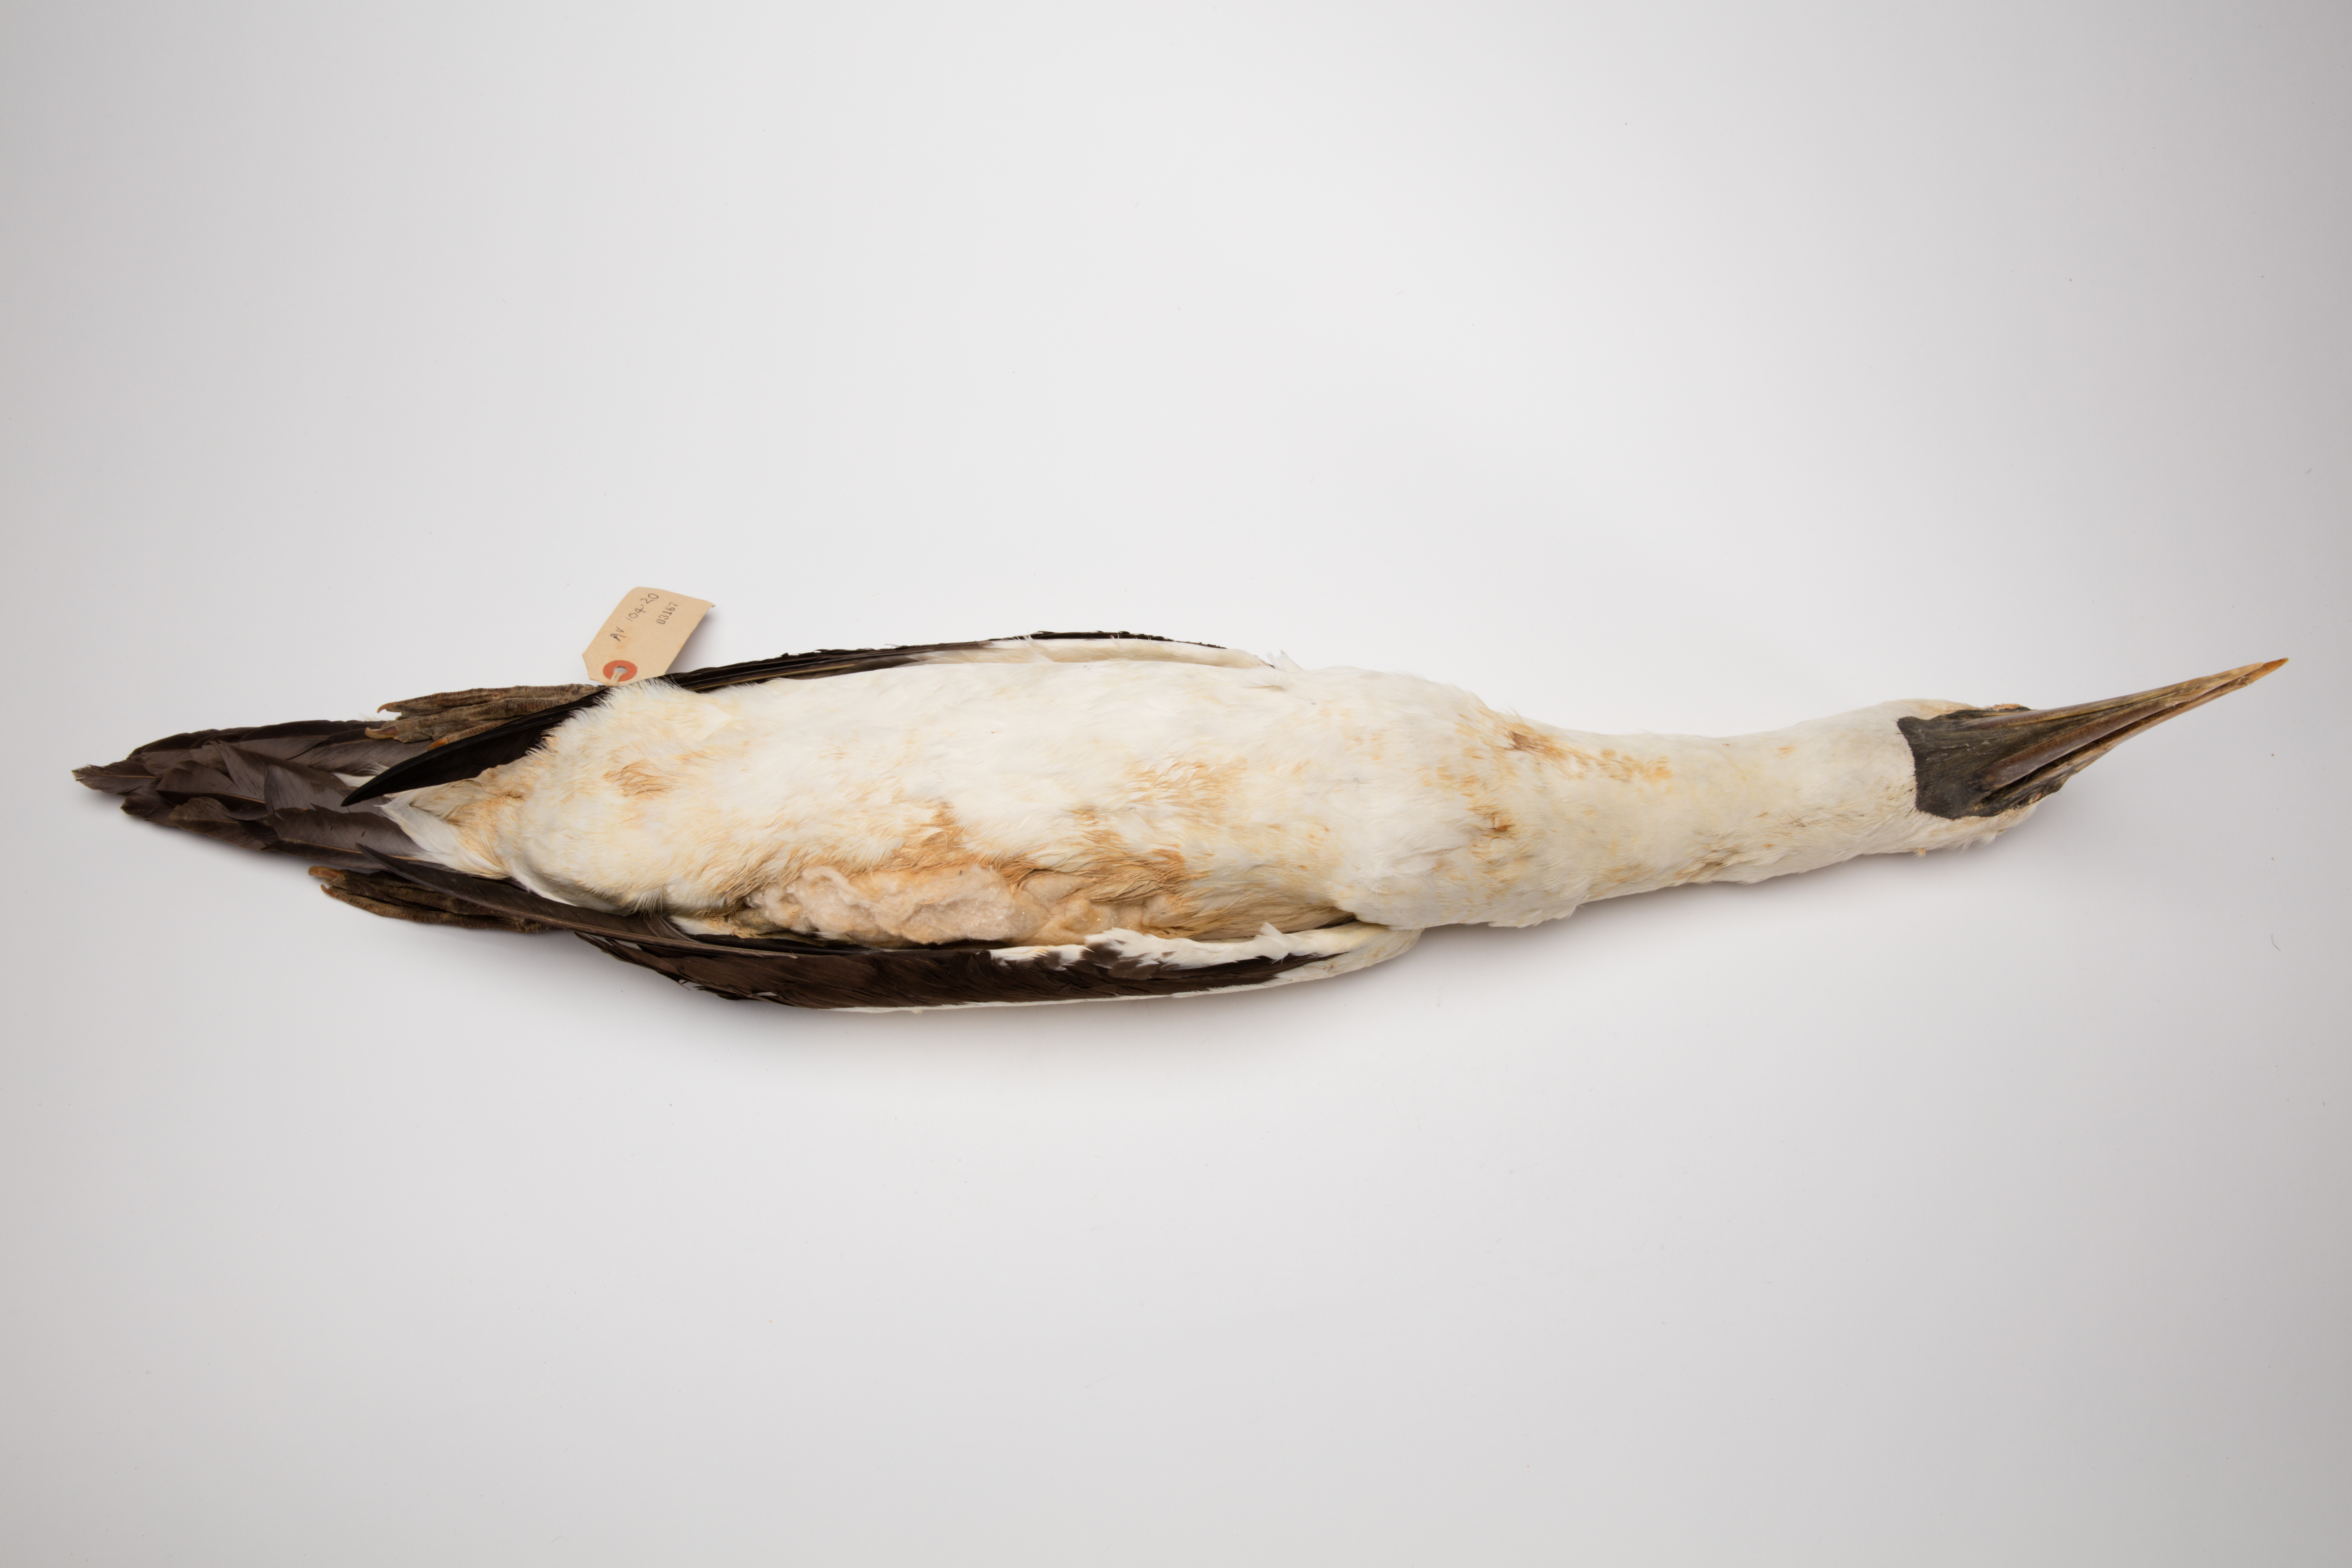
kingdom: Animalia
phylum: Chordata
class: Aves
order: Suliformes
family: Sulidae
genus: Sula
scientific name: Sula dactylatra
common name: Masked booby
